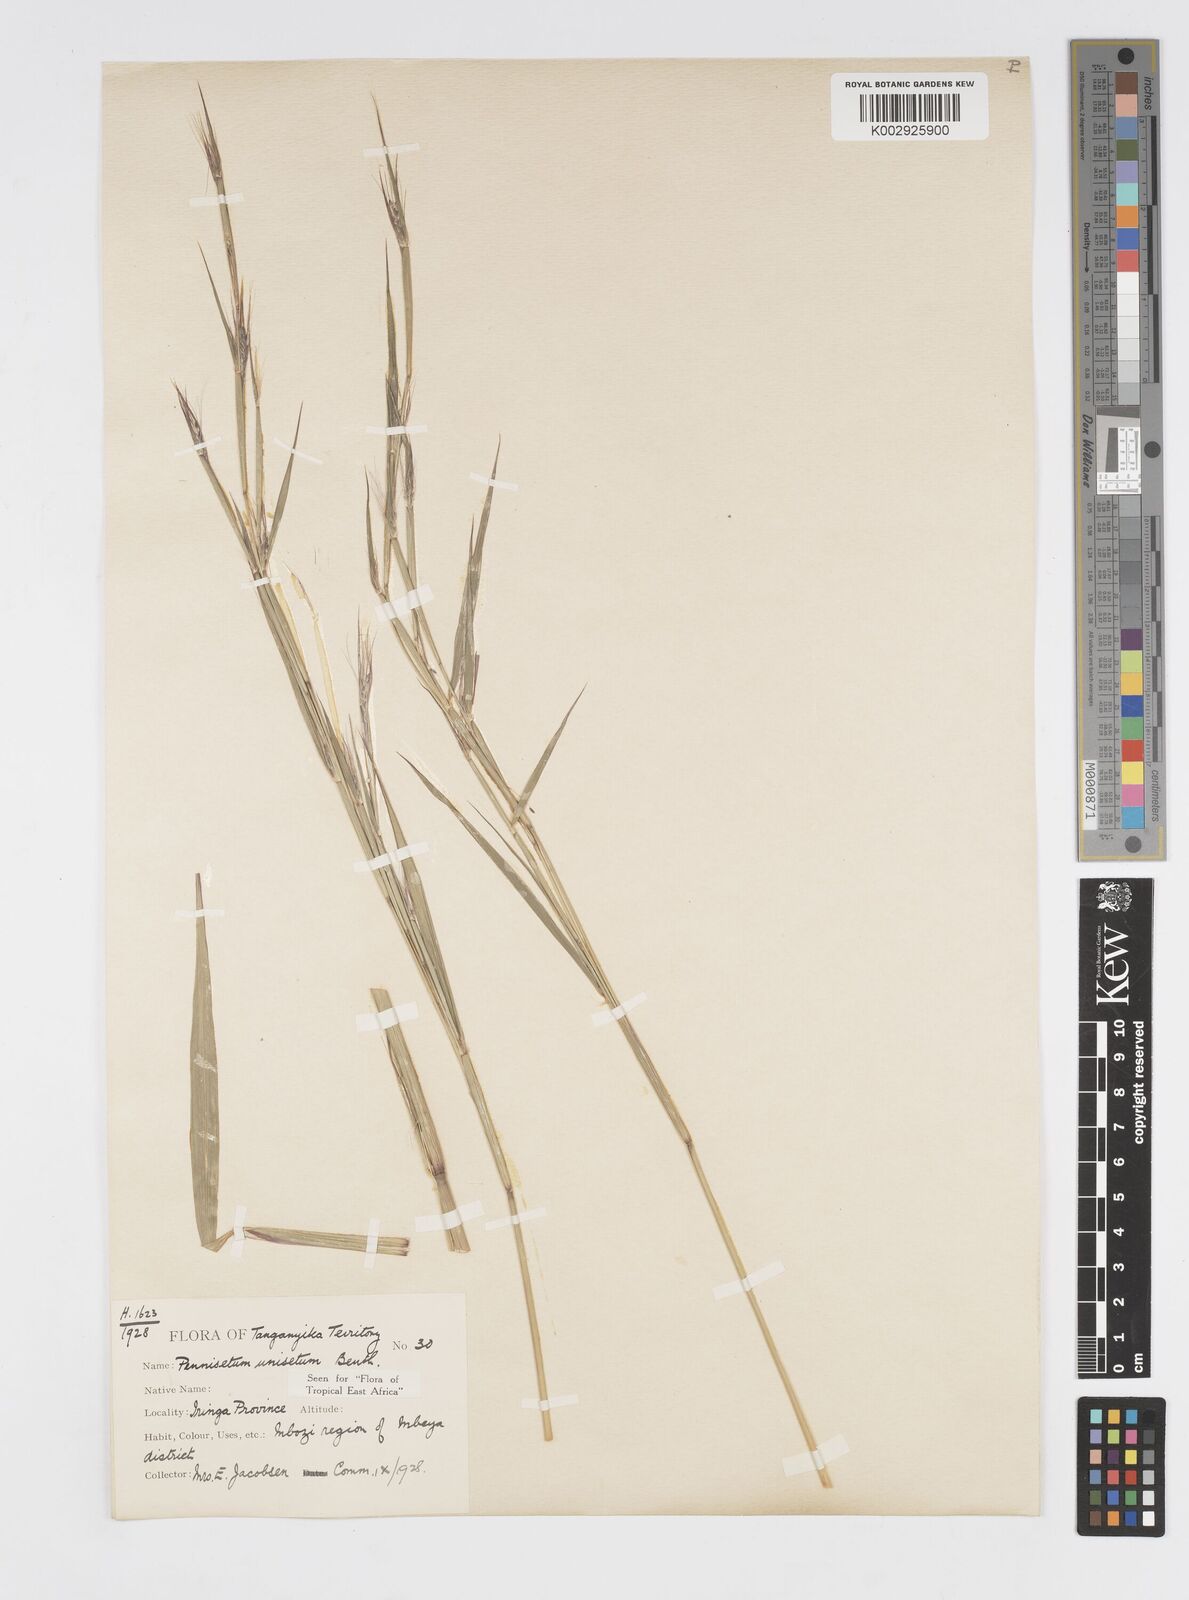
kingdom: Plantae
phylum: Tracheophyta
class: Liliopsida
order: Poales
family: Poaceae
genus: Cenchrus
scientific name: Cenchrus unisetus
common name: Natal grass
